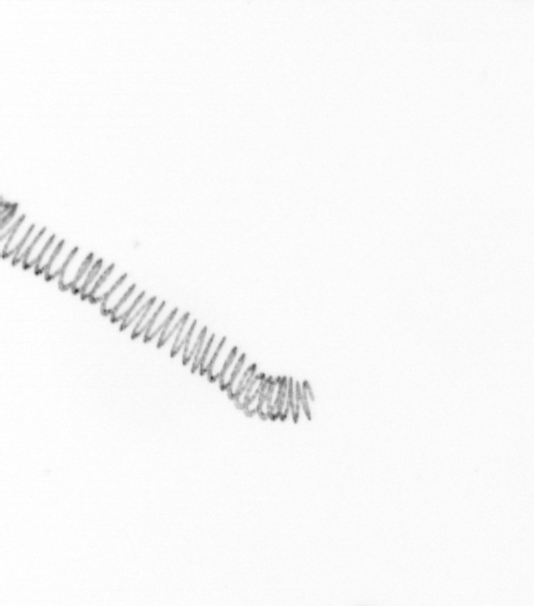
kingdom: Chromista
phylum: Ochrophyta
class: Bacillariophyceae
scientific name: Bacillariophyceae
